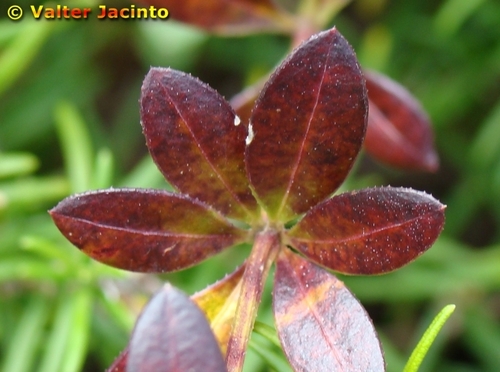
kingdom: Plantae
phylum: Tracheophyta
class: Magnoliopsida
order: Gentianales
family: Rubiaceae
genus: Rubia
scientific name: Rubia peregrina
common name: Wild madder
